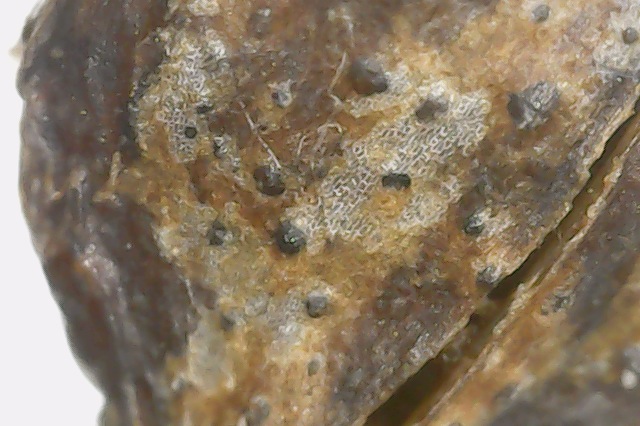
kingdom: Fungi
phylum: Ascomycota
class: Dothideomycetes
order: Pleosporales
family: Didymellaceae
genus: Ascochyta
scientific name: Ascochyta syringae
